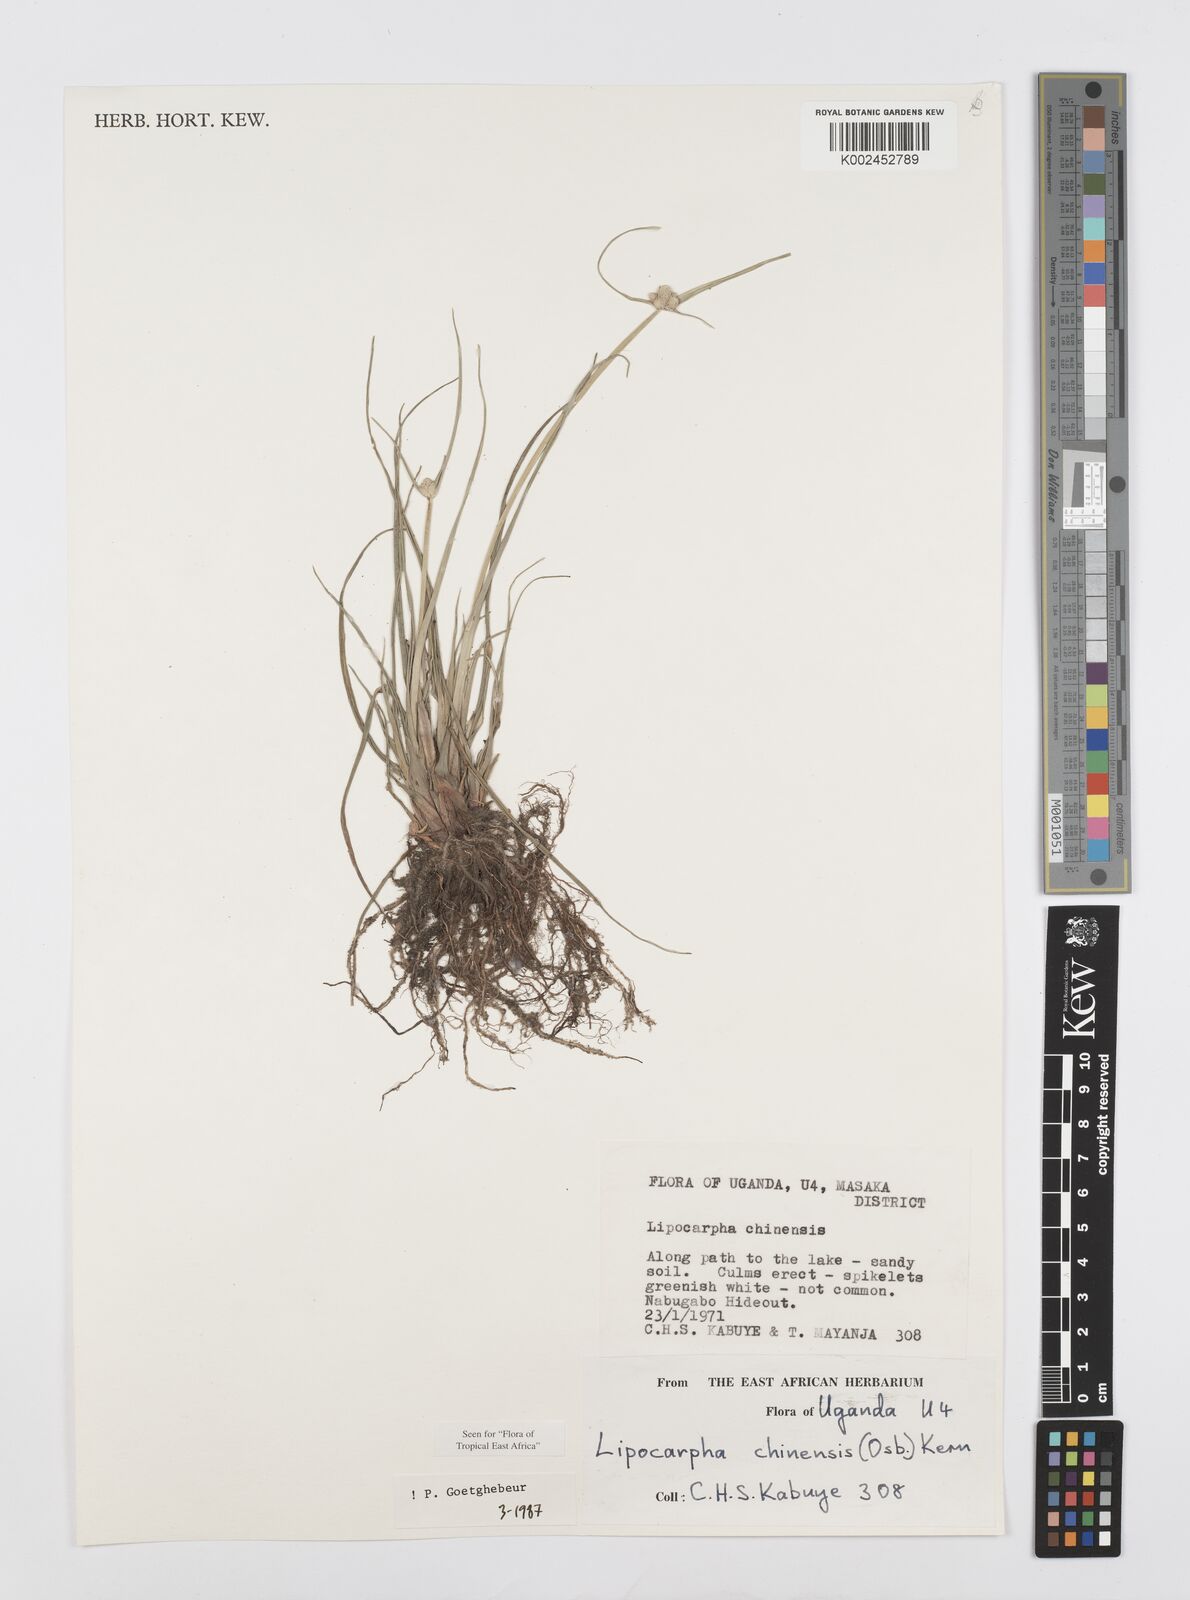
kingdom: Plantae
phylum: Tracheophyta
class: Liliopsida
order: Poales
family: Cyperaceae
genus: Cyperus
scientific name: Cyperus albescens
